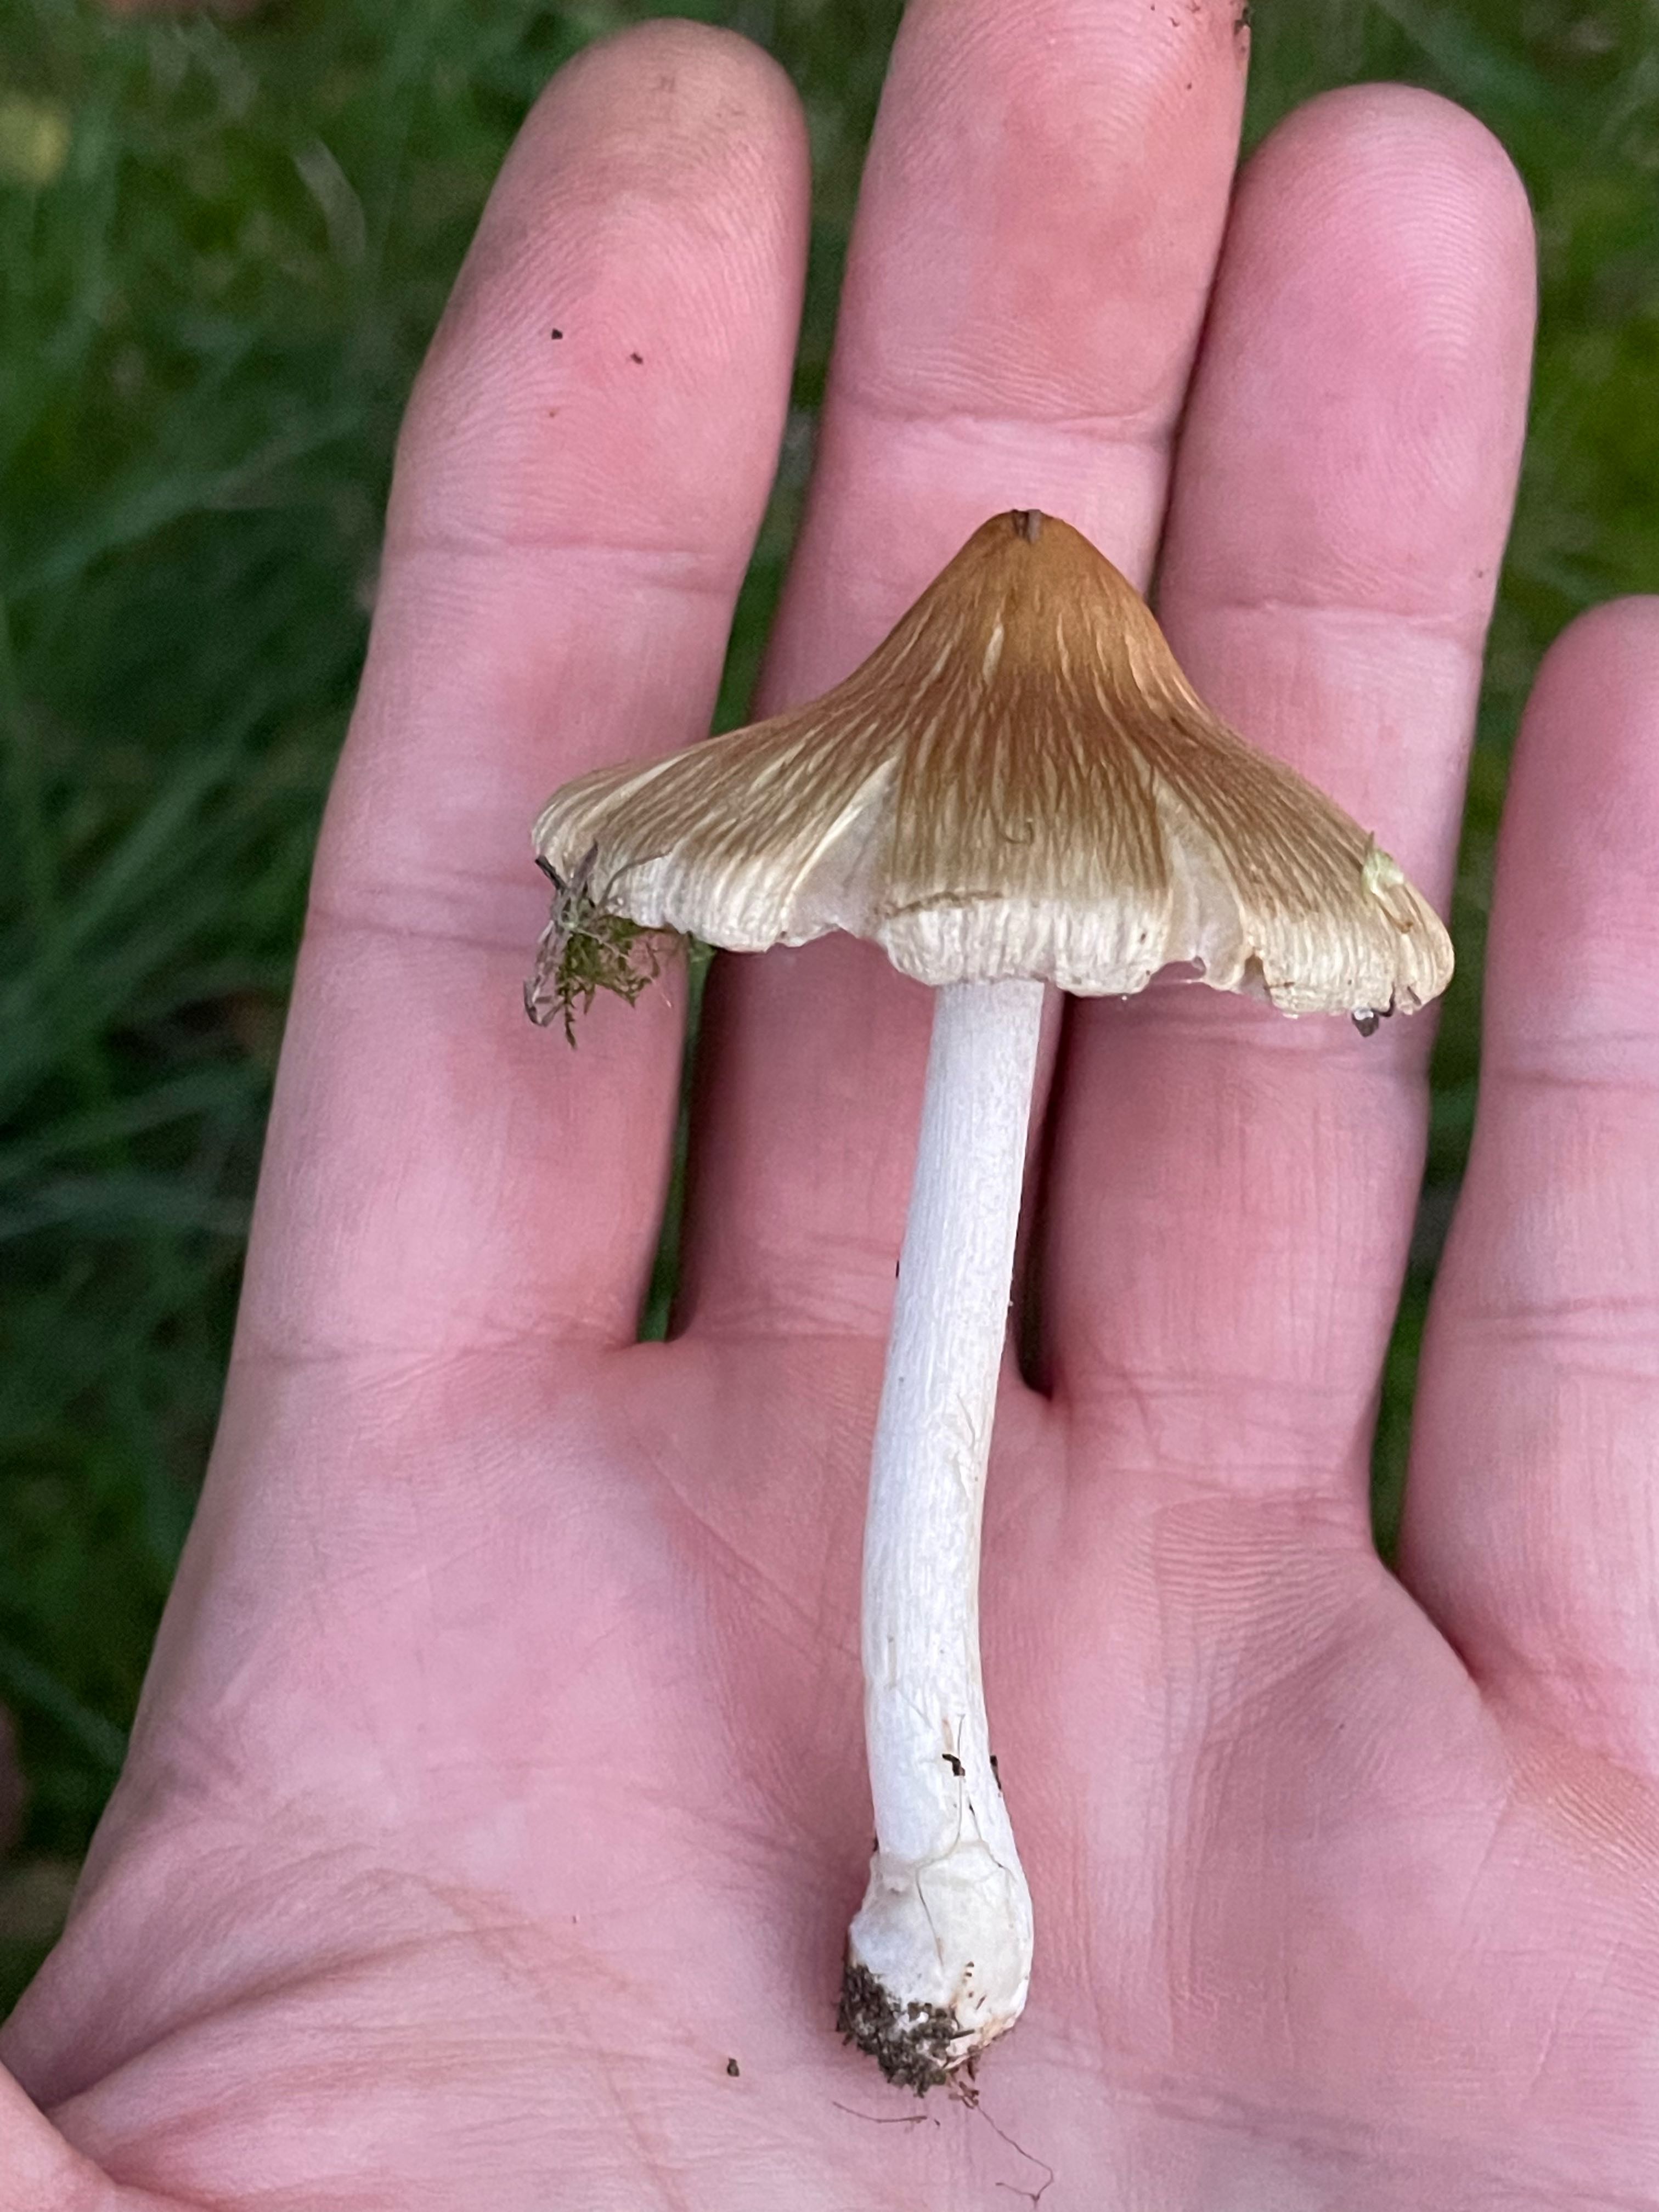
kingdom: Fungi
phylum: Basidiomycota
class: Agaricomycetes
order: Agaricales
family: Inocybaceae
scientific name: Inocybaceae
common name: trævlhatfamilien
